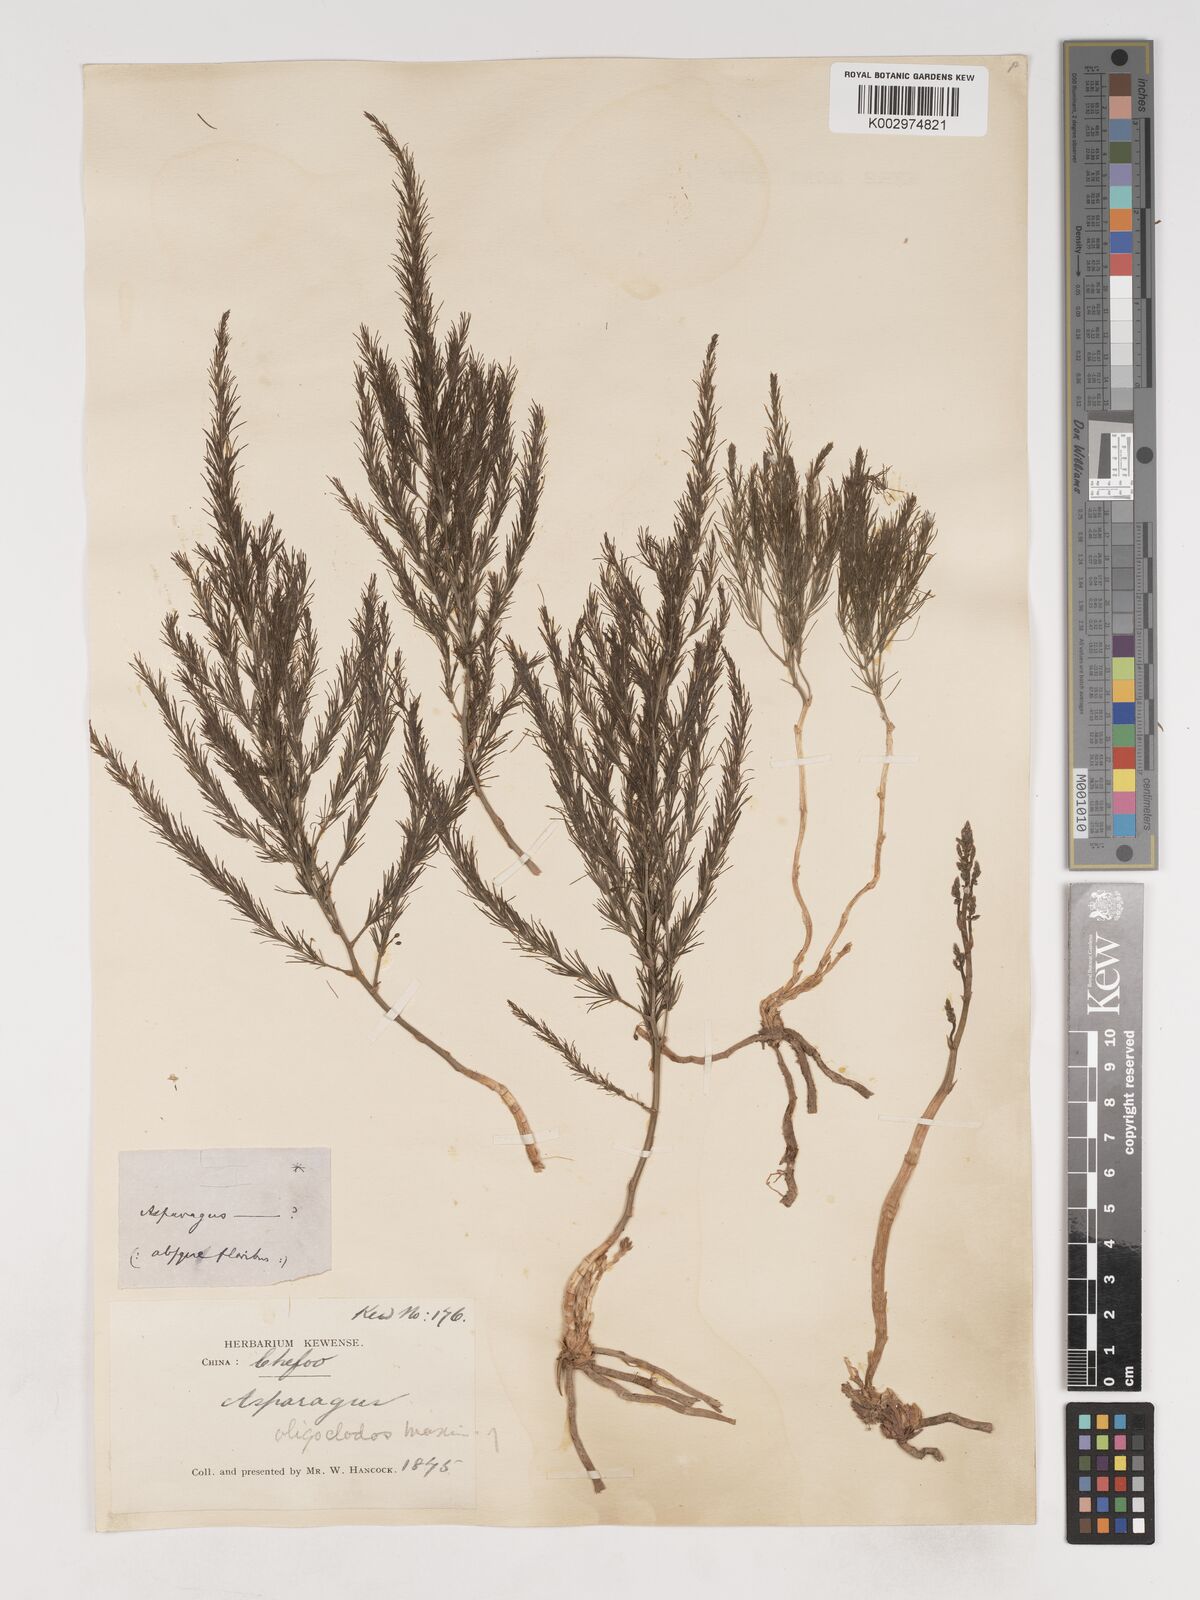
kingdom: Plantae
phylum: Tracheophyta
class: Liliopsida
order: Asparagales
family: Asparagaceae
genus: Asparagus
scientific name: Asparagus oligoclonos
